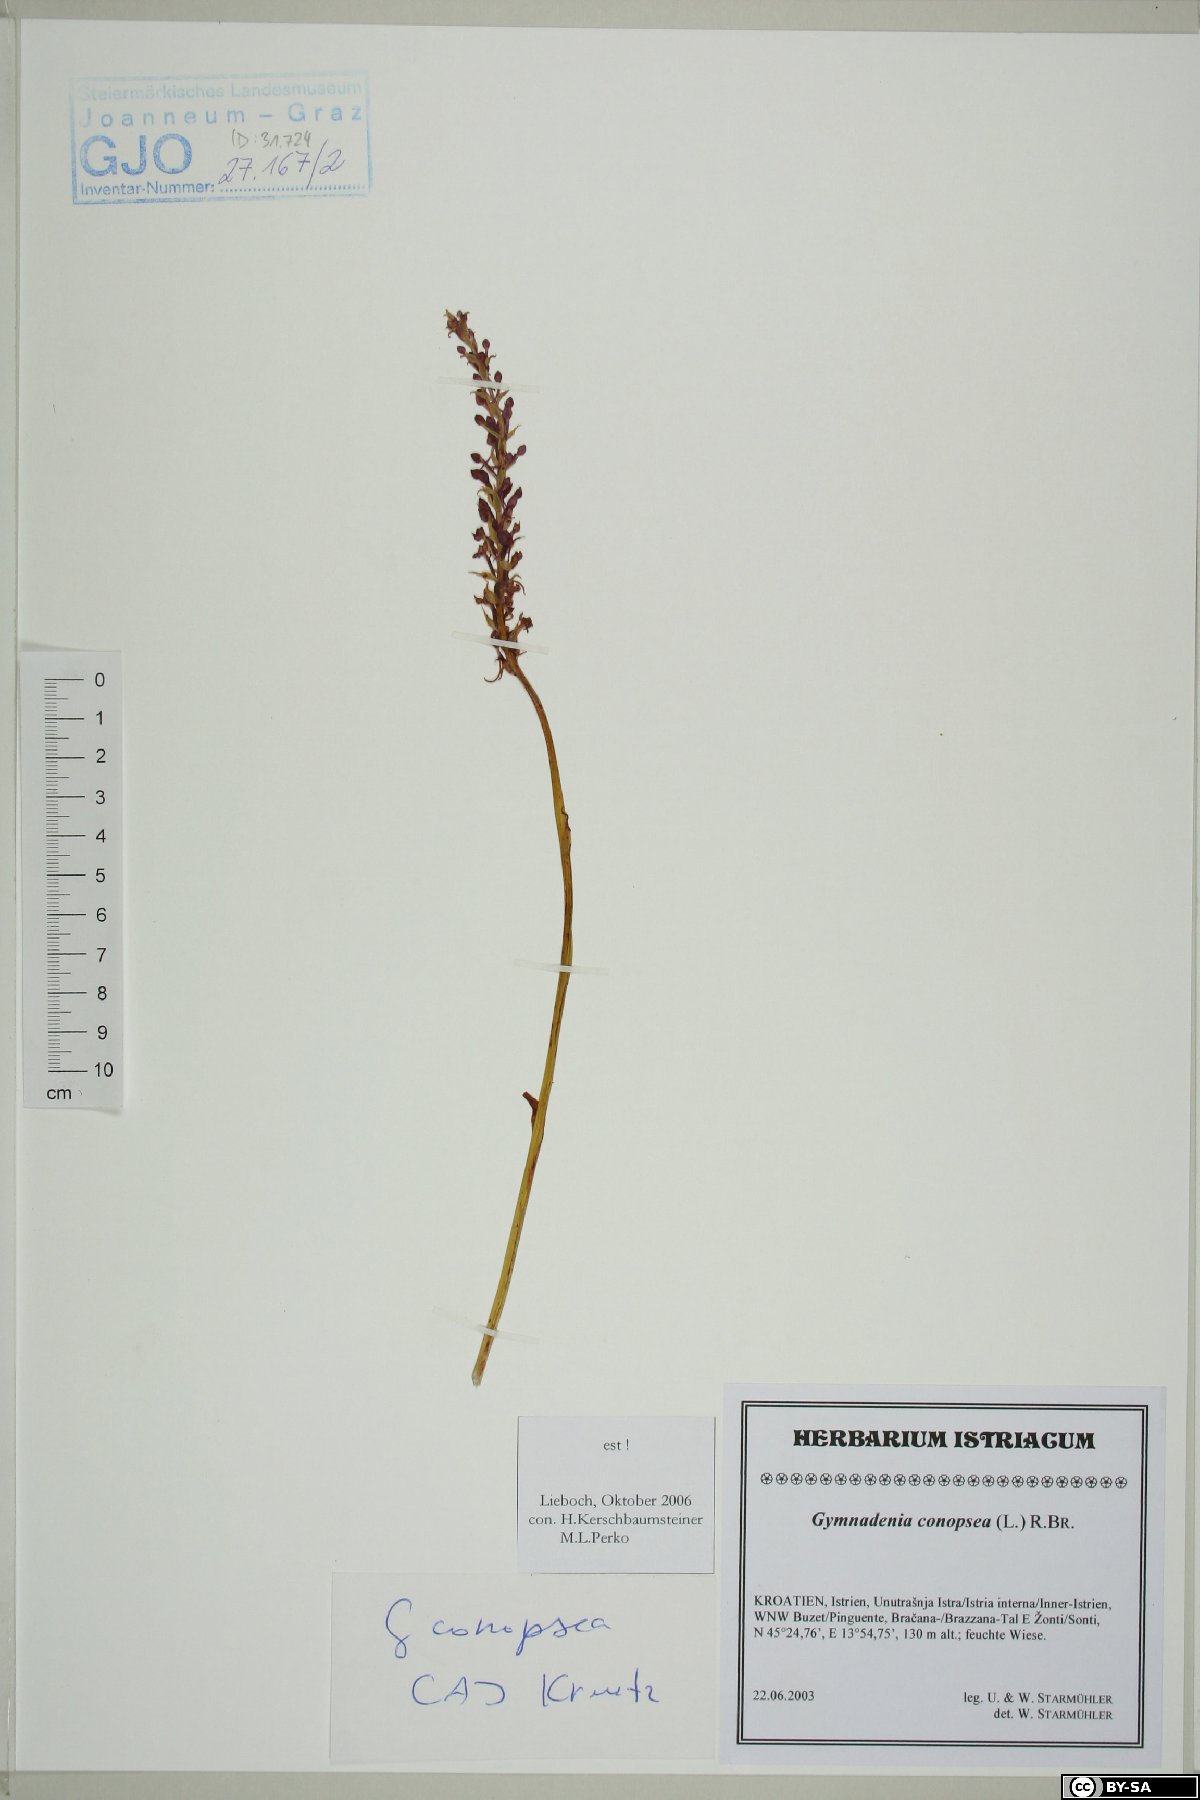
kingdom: Plantae
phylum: Tracheophyta
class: Liliopsida
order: Asparagales
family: Orchidaceae
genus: Gymnadenia
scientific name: Gymnadenia conopsea
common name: Fragrant orchid
